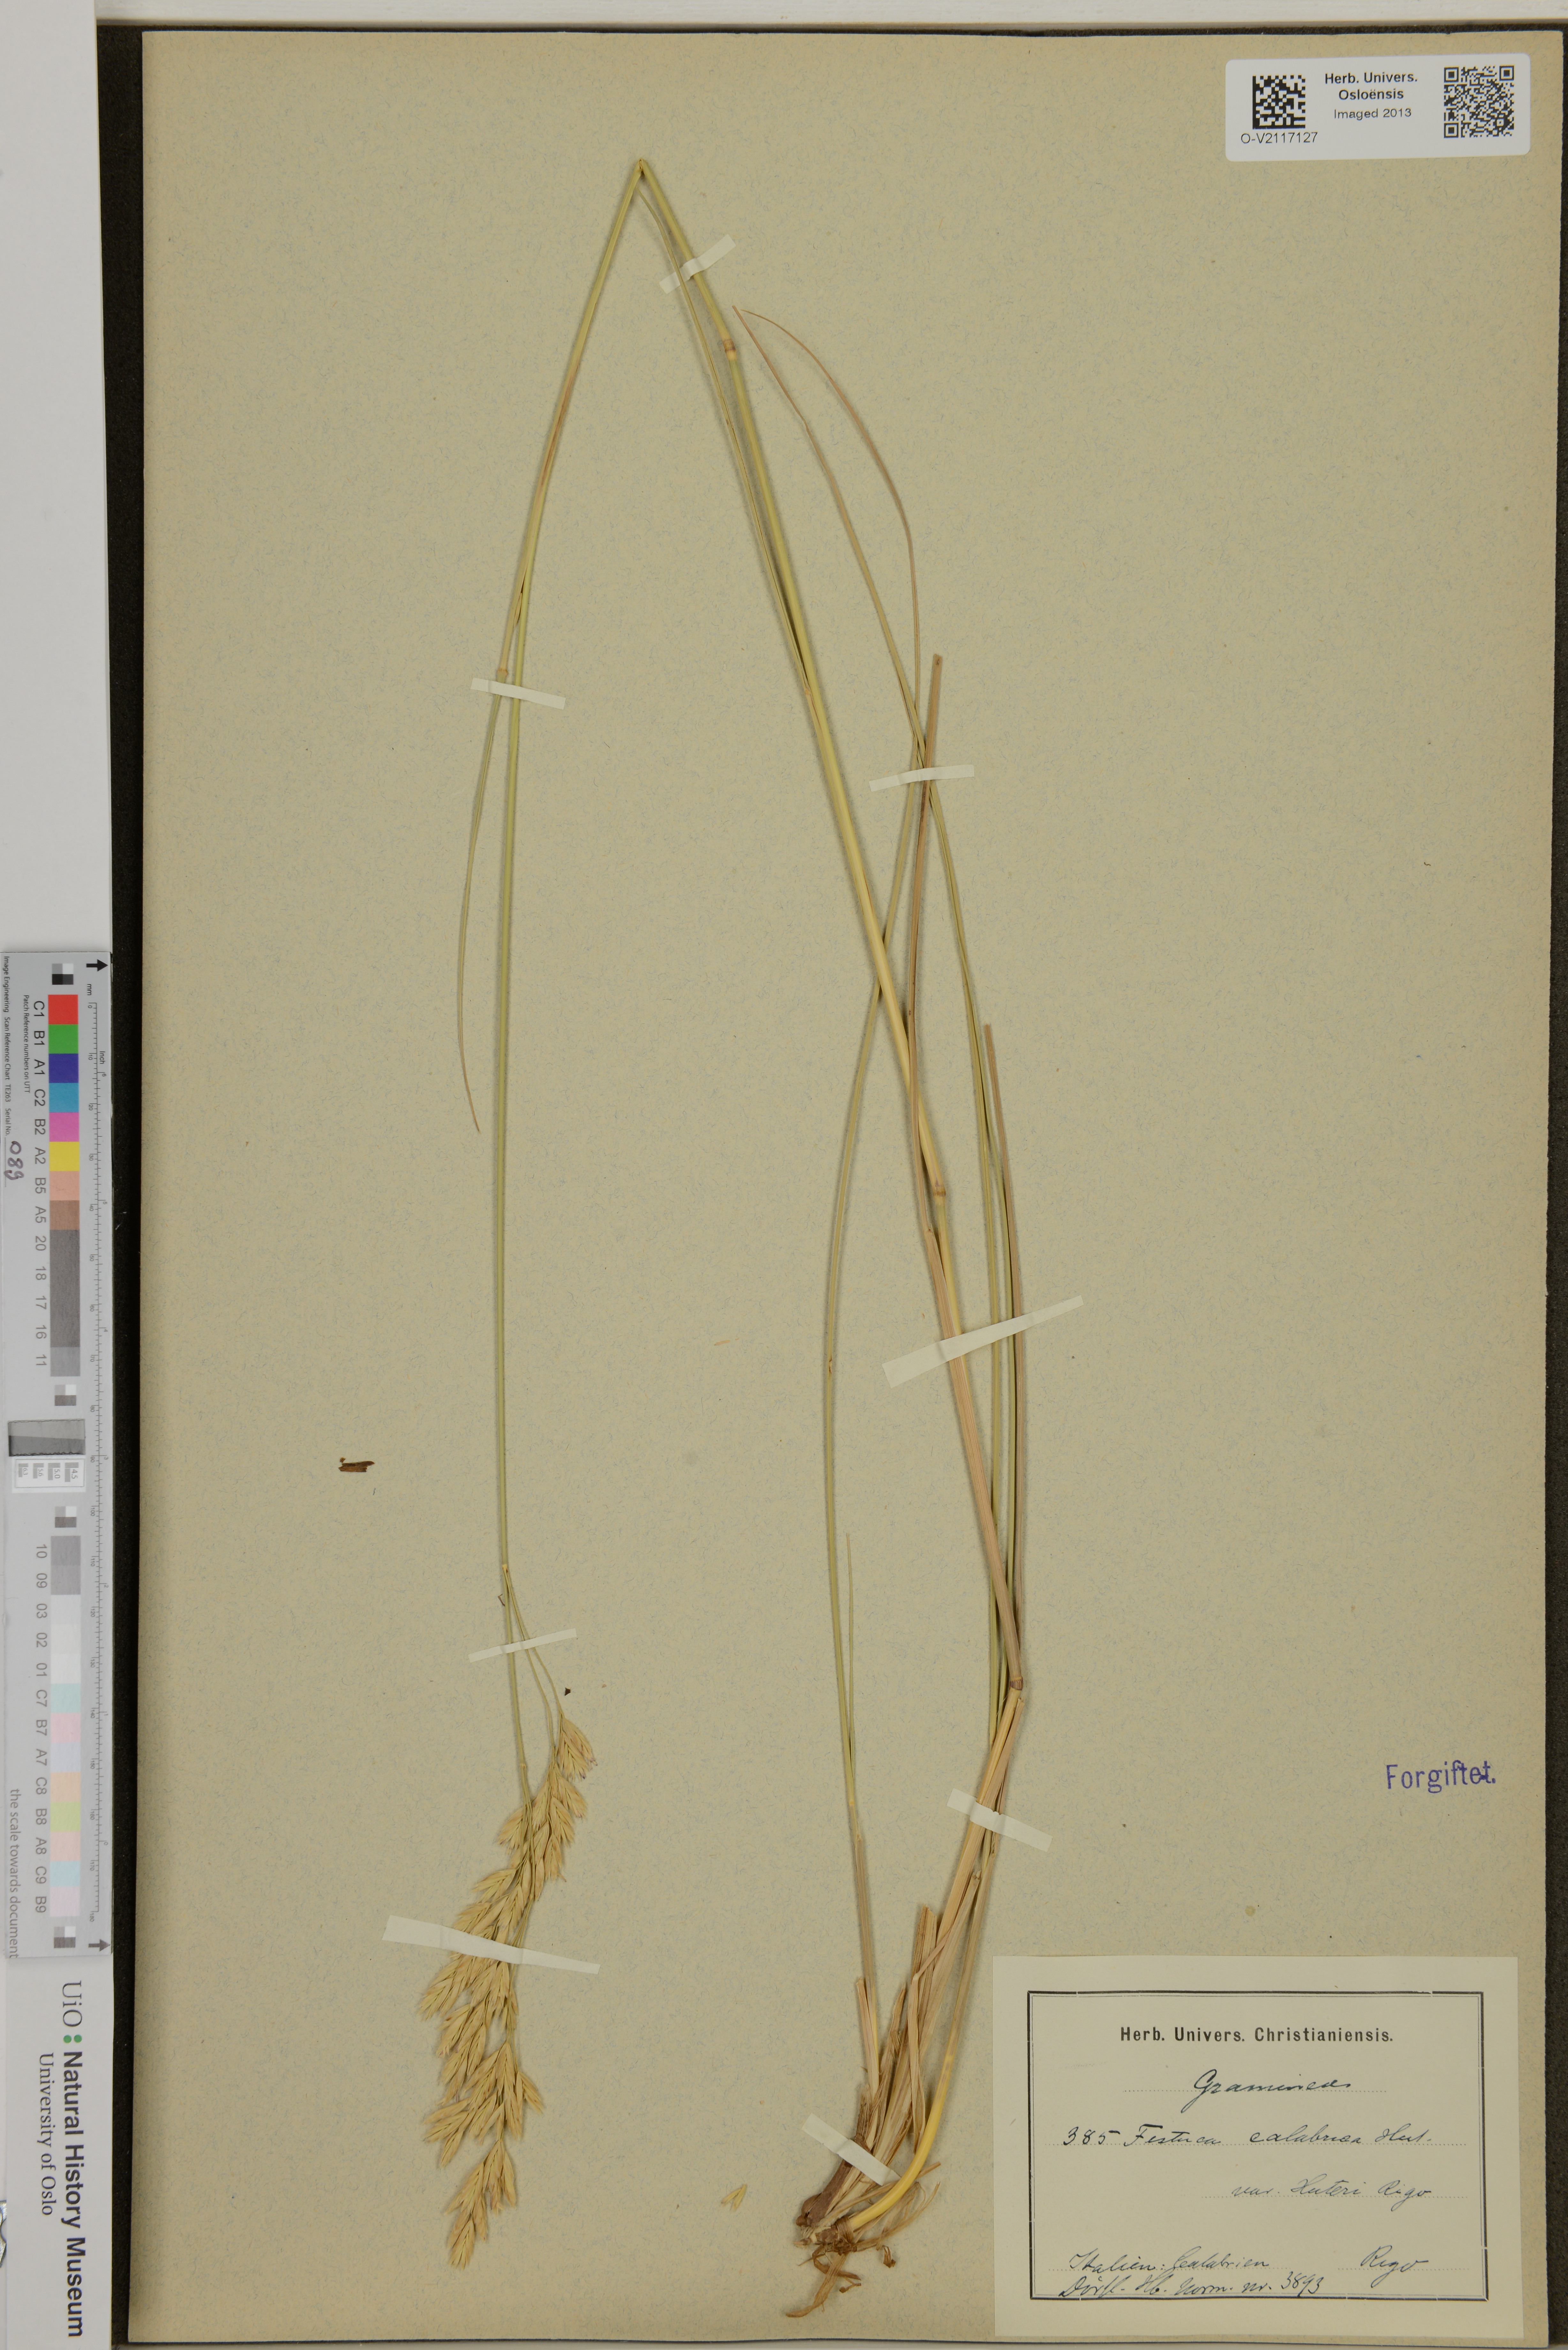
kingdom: Plantae
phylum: Tracheophyta
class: Liliopsida
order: Poales
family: Poaceae
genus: Festuca
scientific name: Festuca calabrica
